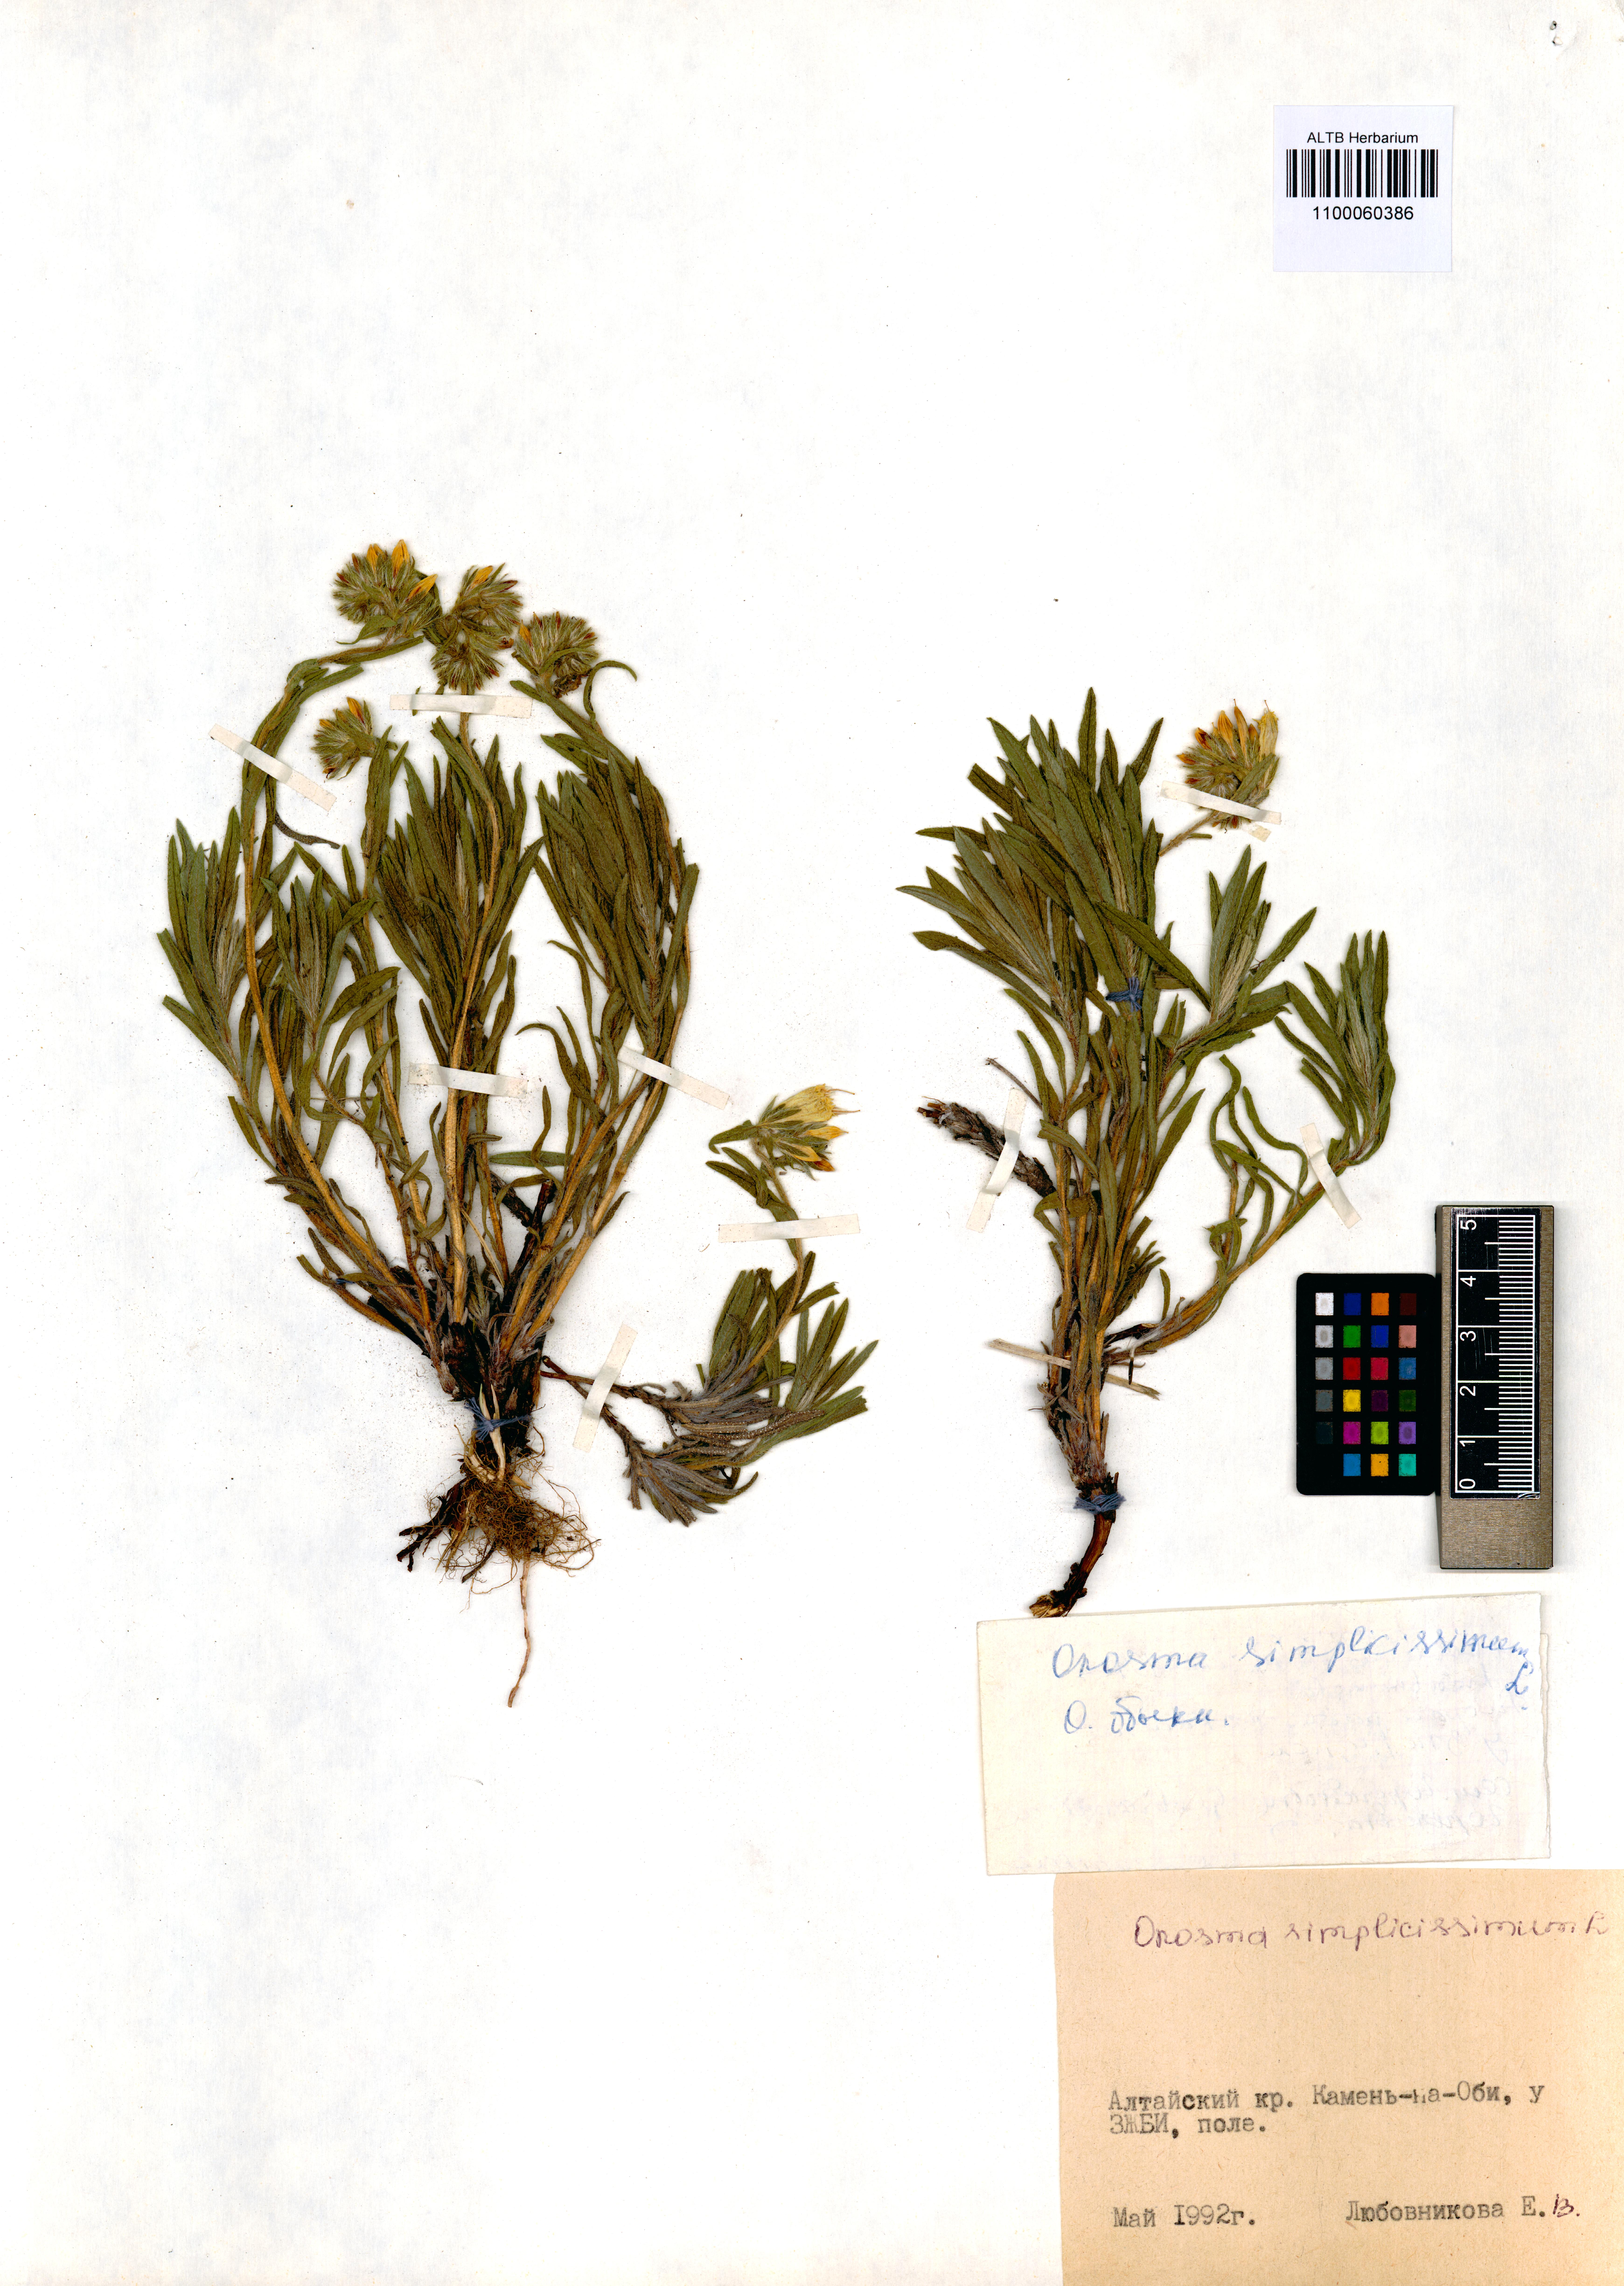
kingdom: Plantae
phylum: Tracheophyta
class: Magnoliopsida
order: Boraginales
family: Boraginaceae
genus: Onosma
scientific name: Onosma simplicissima
